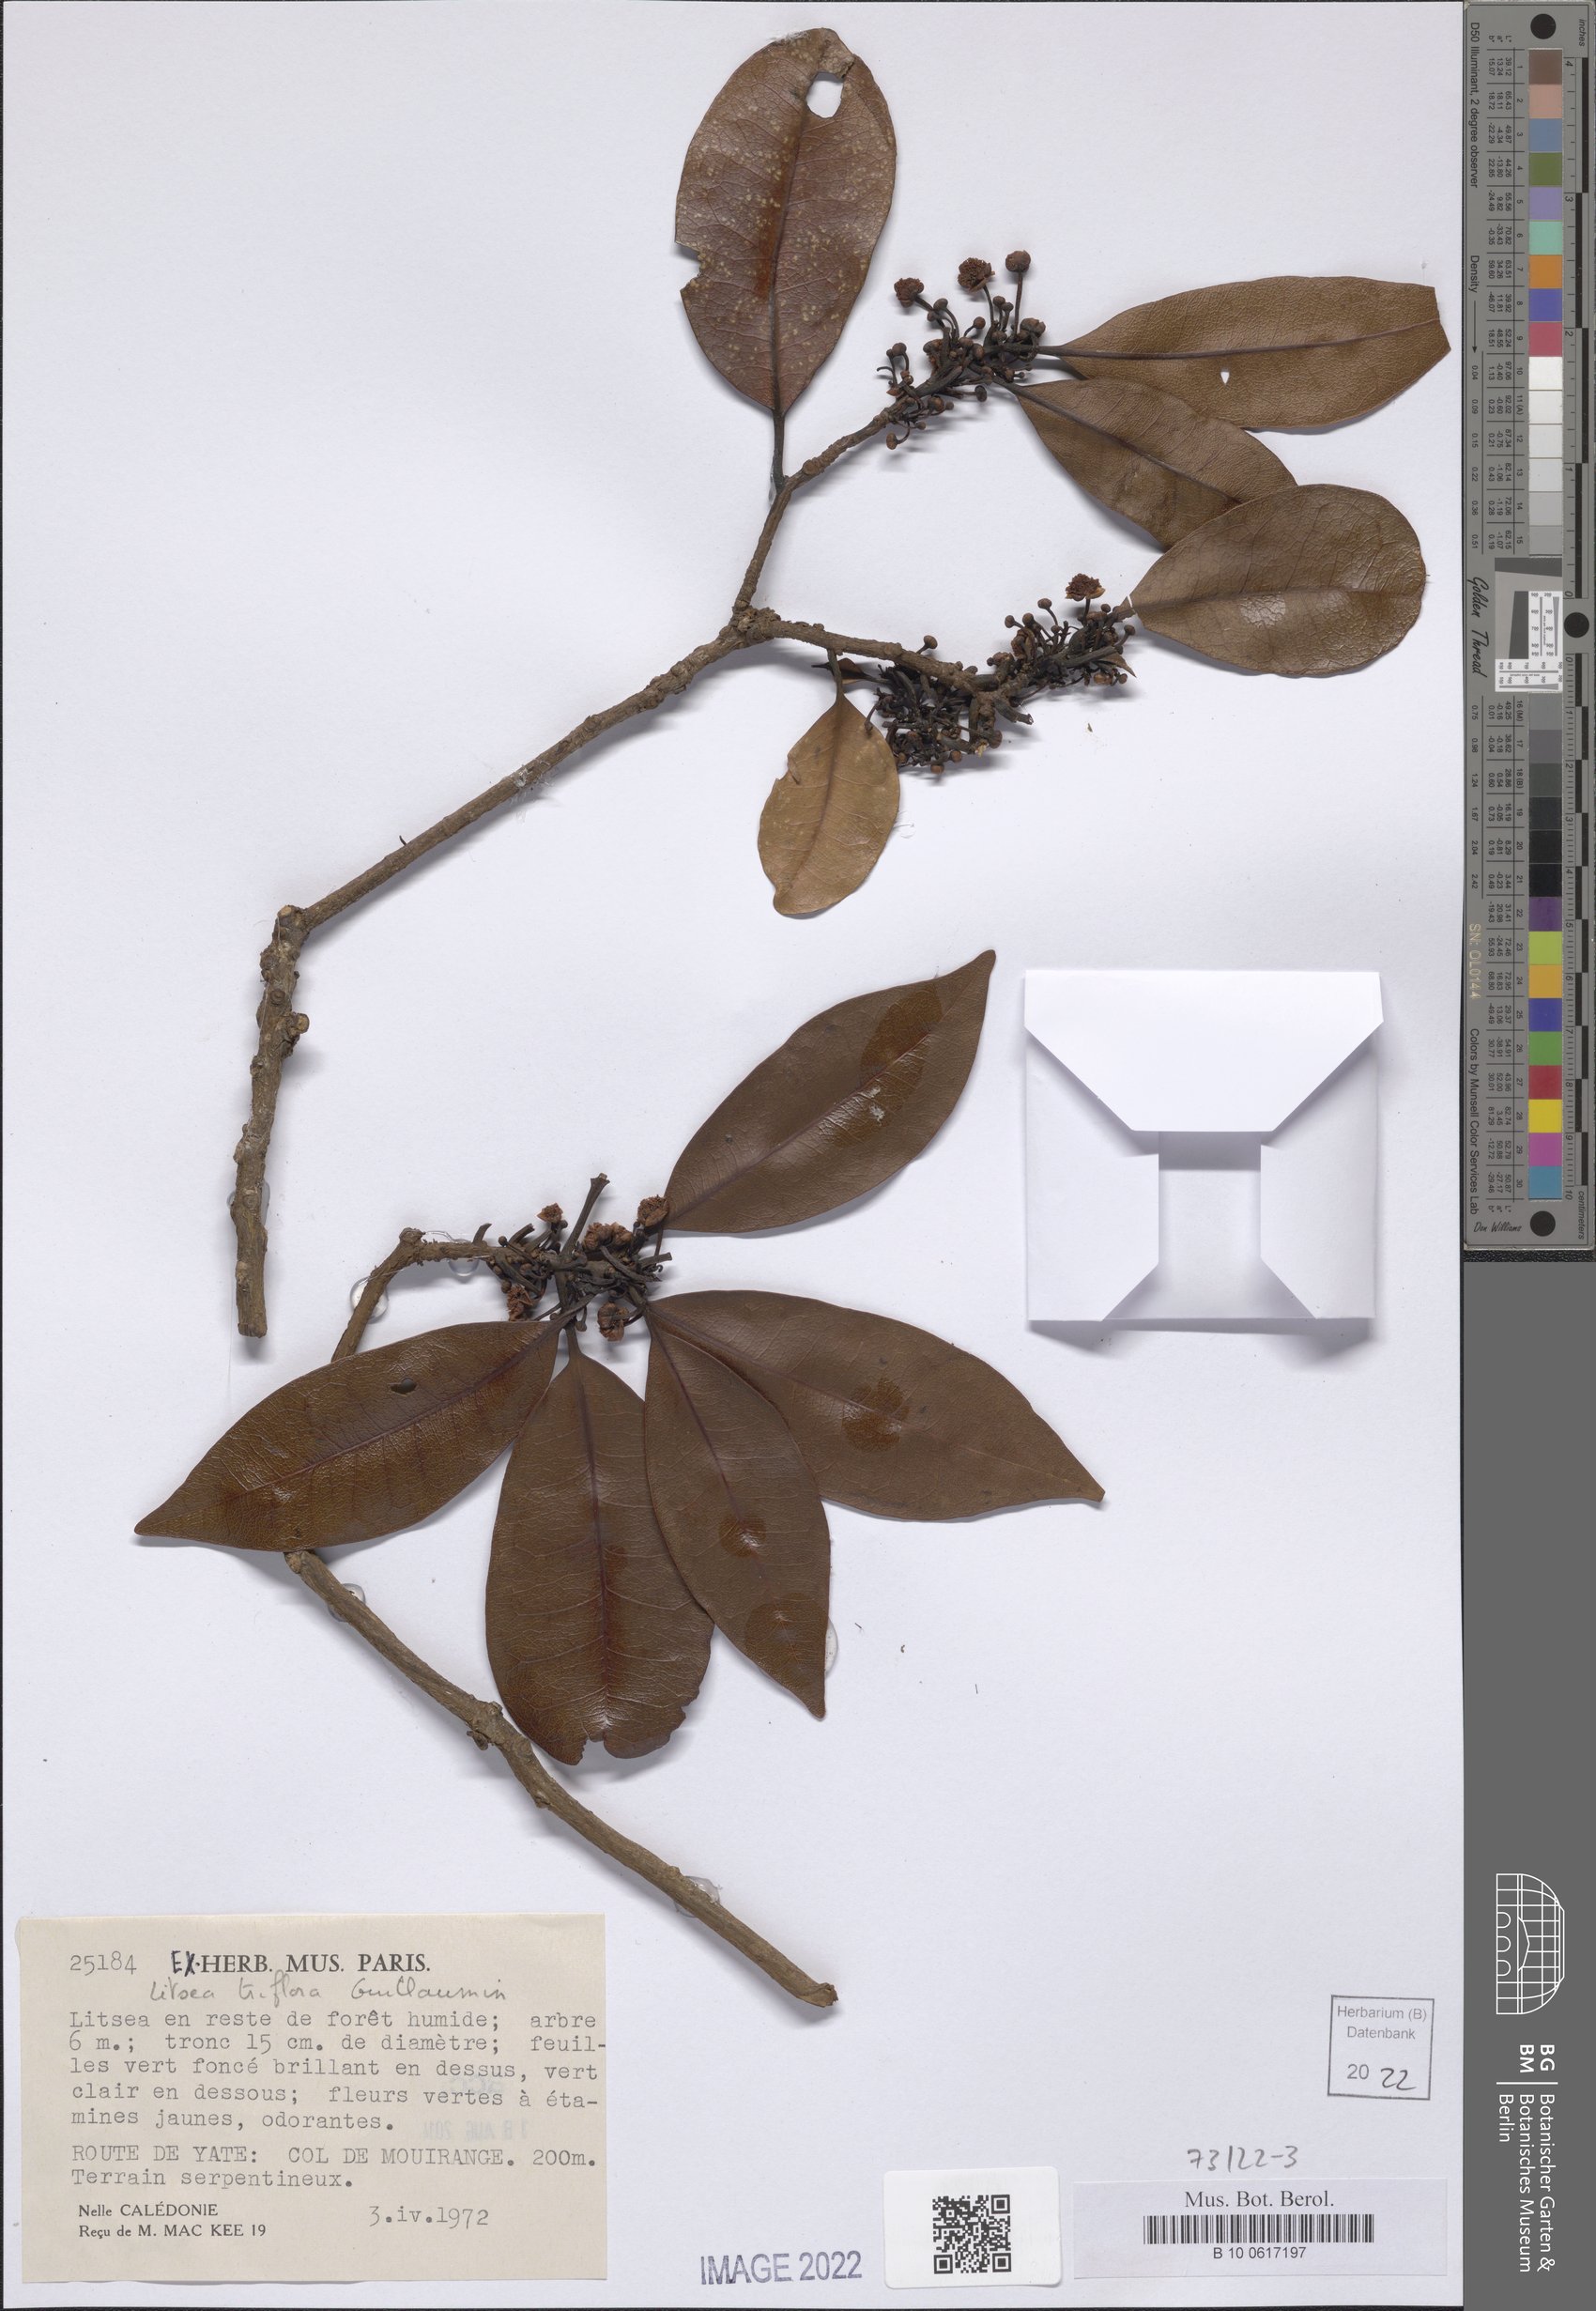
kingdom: Plantae
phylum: Tracheophyta
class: Magnoliopsida
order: Laurales
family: Lauraceae
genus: Litsea
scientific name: Litsea triflora
